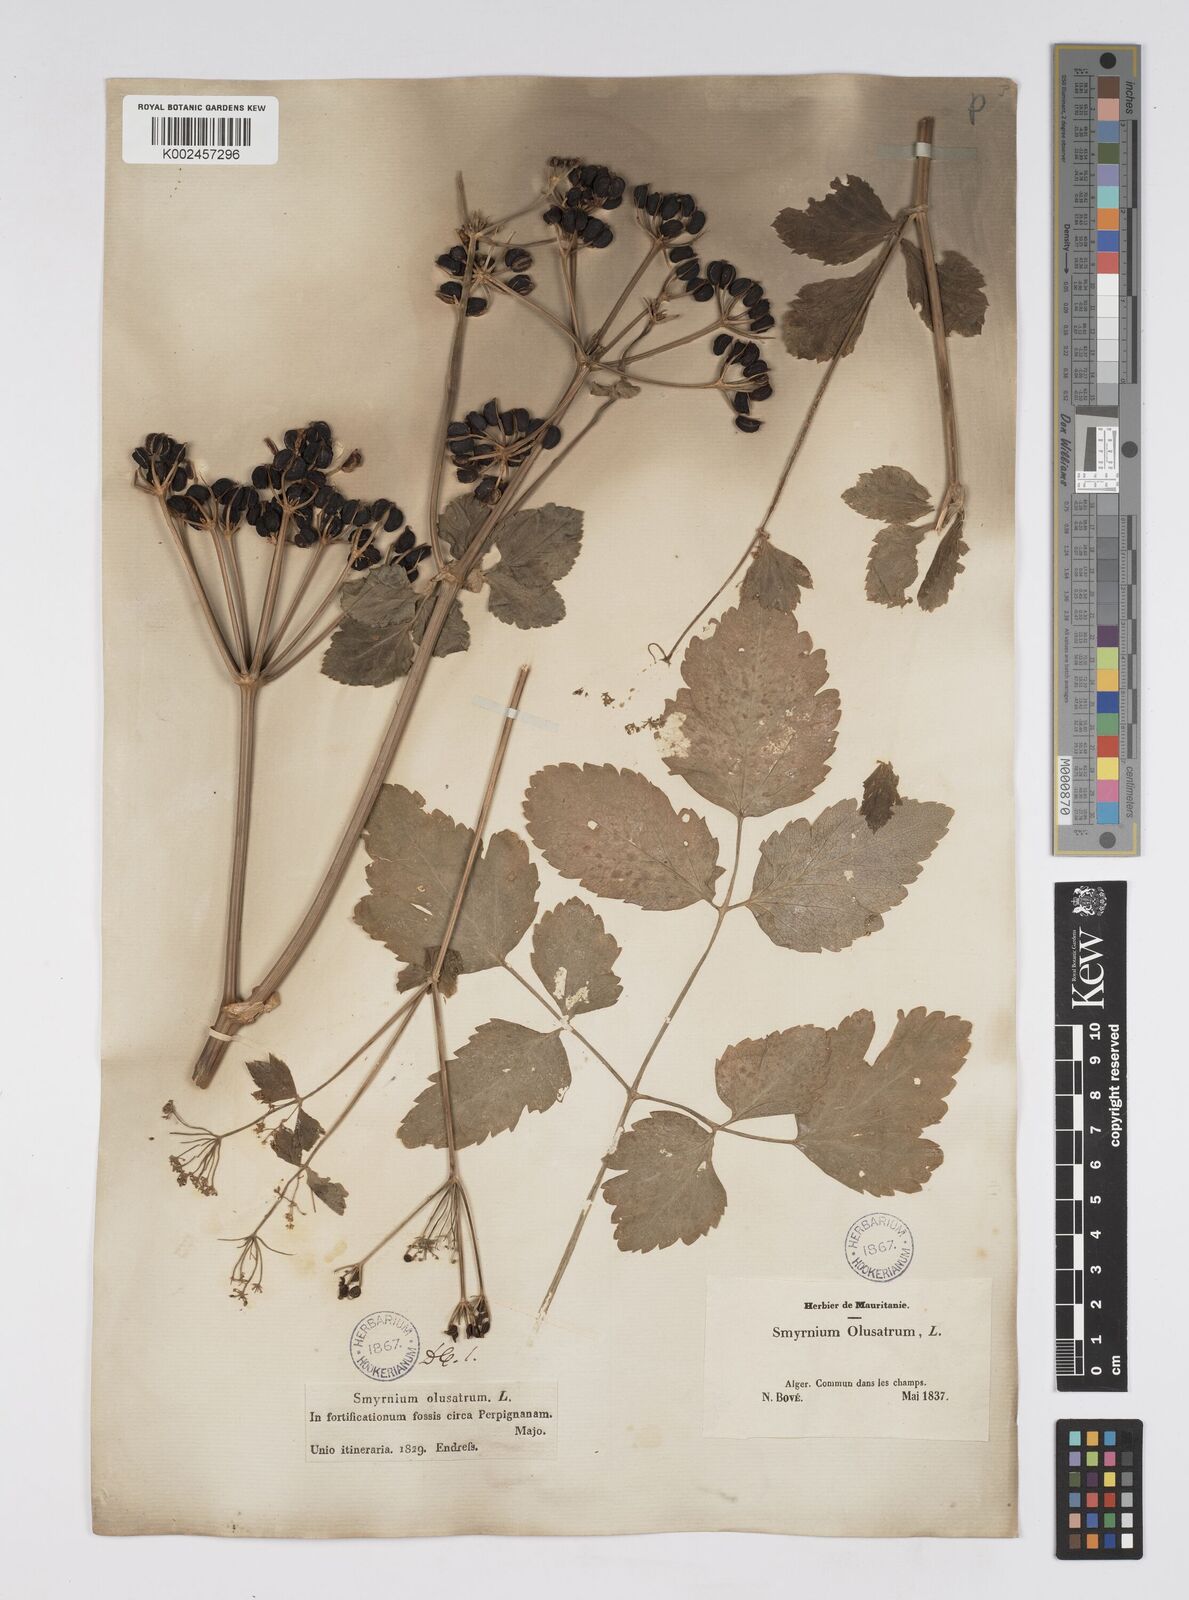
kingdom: Plantae
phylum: Tracheophyta
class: Magnoliopsida
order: Apiales
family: Apiaceae
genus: Smyrnium
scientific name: Smyrnium olusatrum
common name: Alexanders
